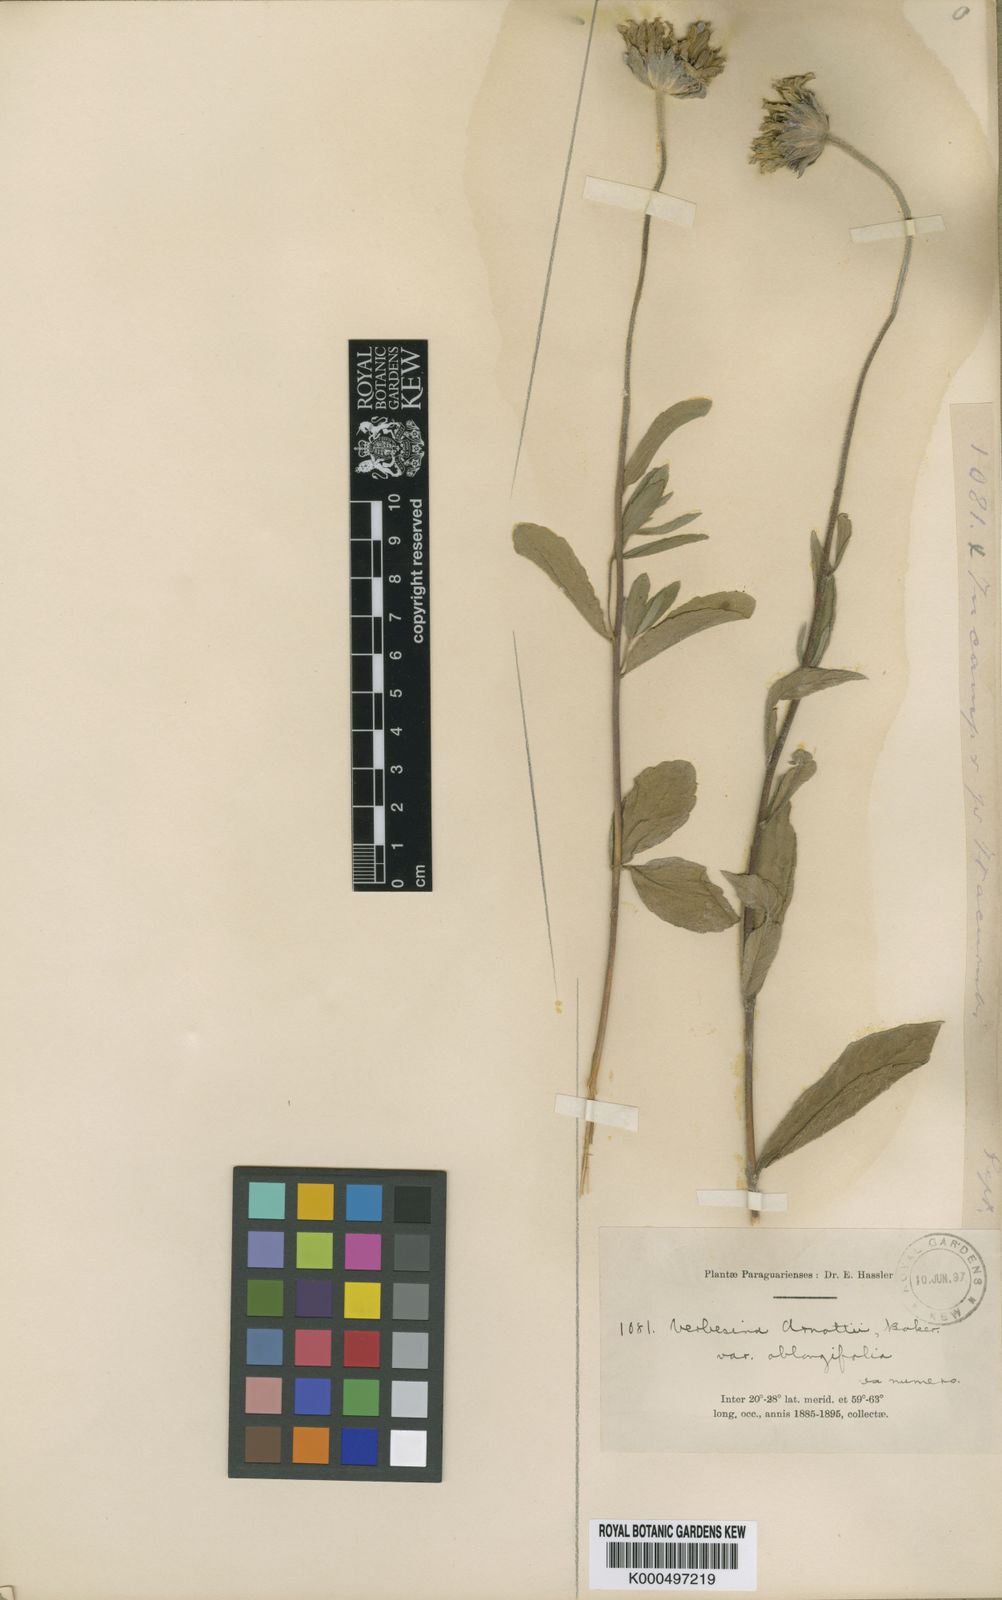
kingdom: Plantae
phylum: Tracheophyta
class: Magnoliopsida
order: Asterales
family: Asteraceae
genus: Dimerostemma
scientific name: Dimerostemma arnottii
